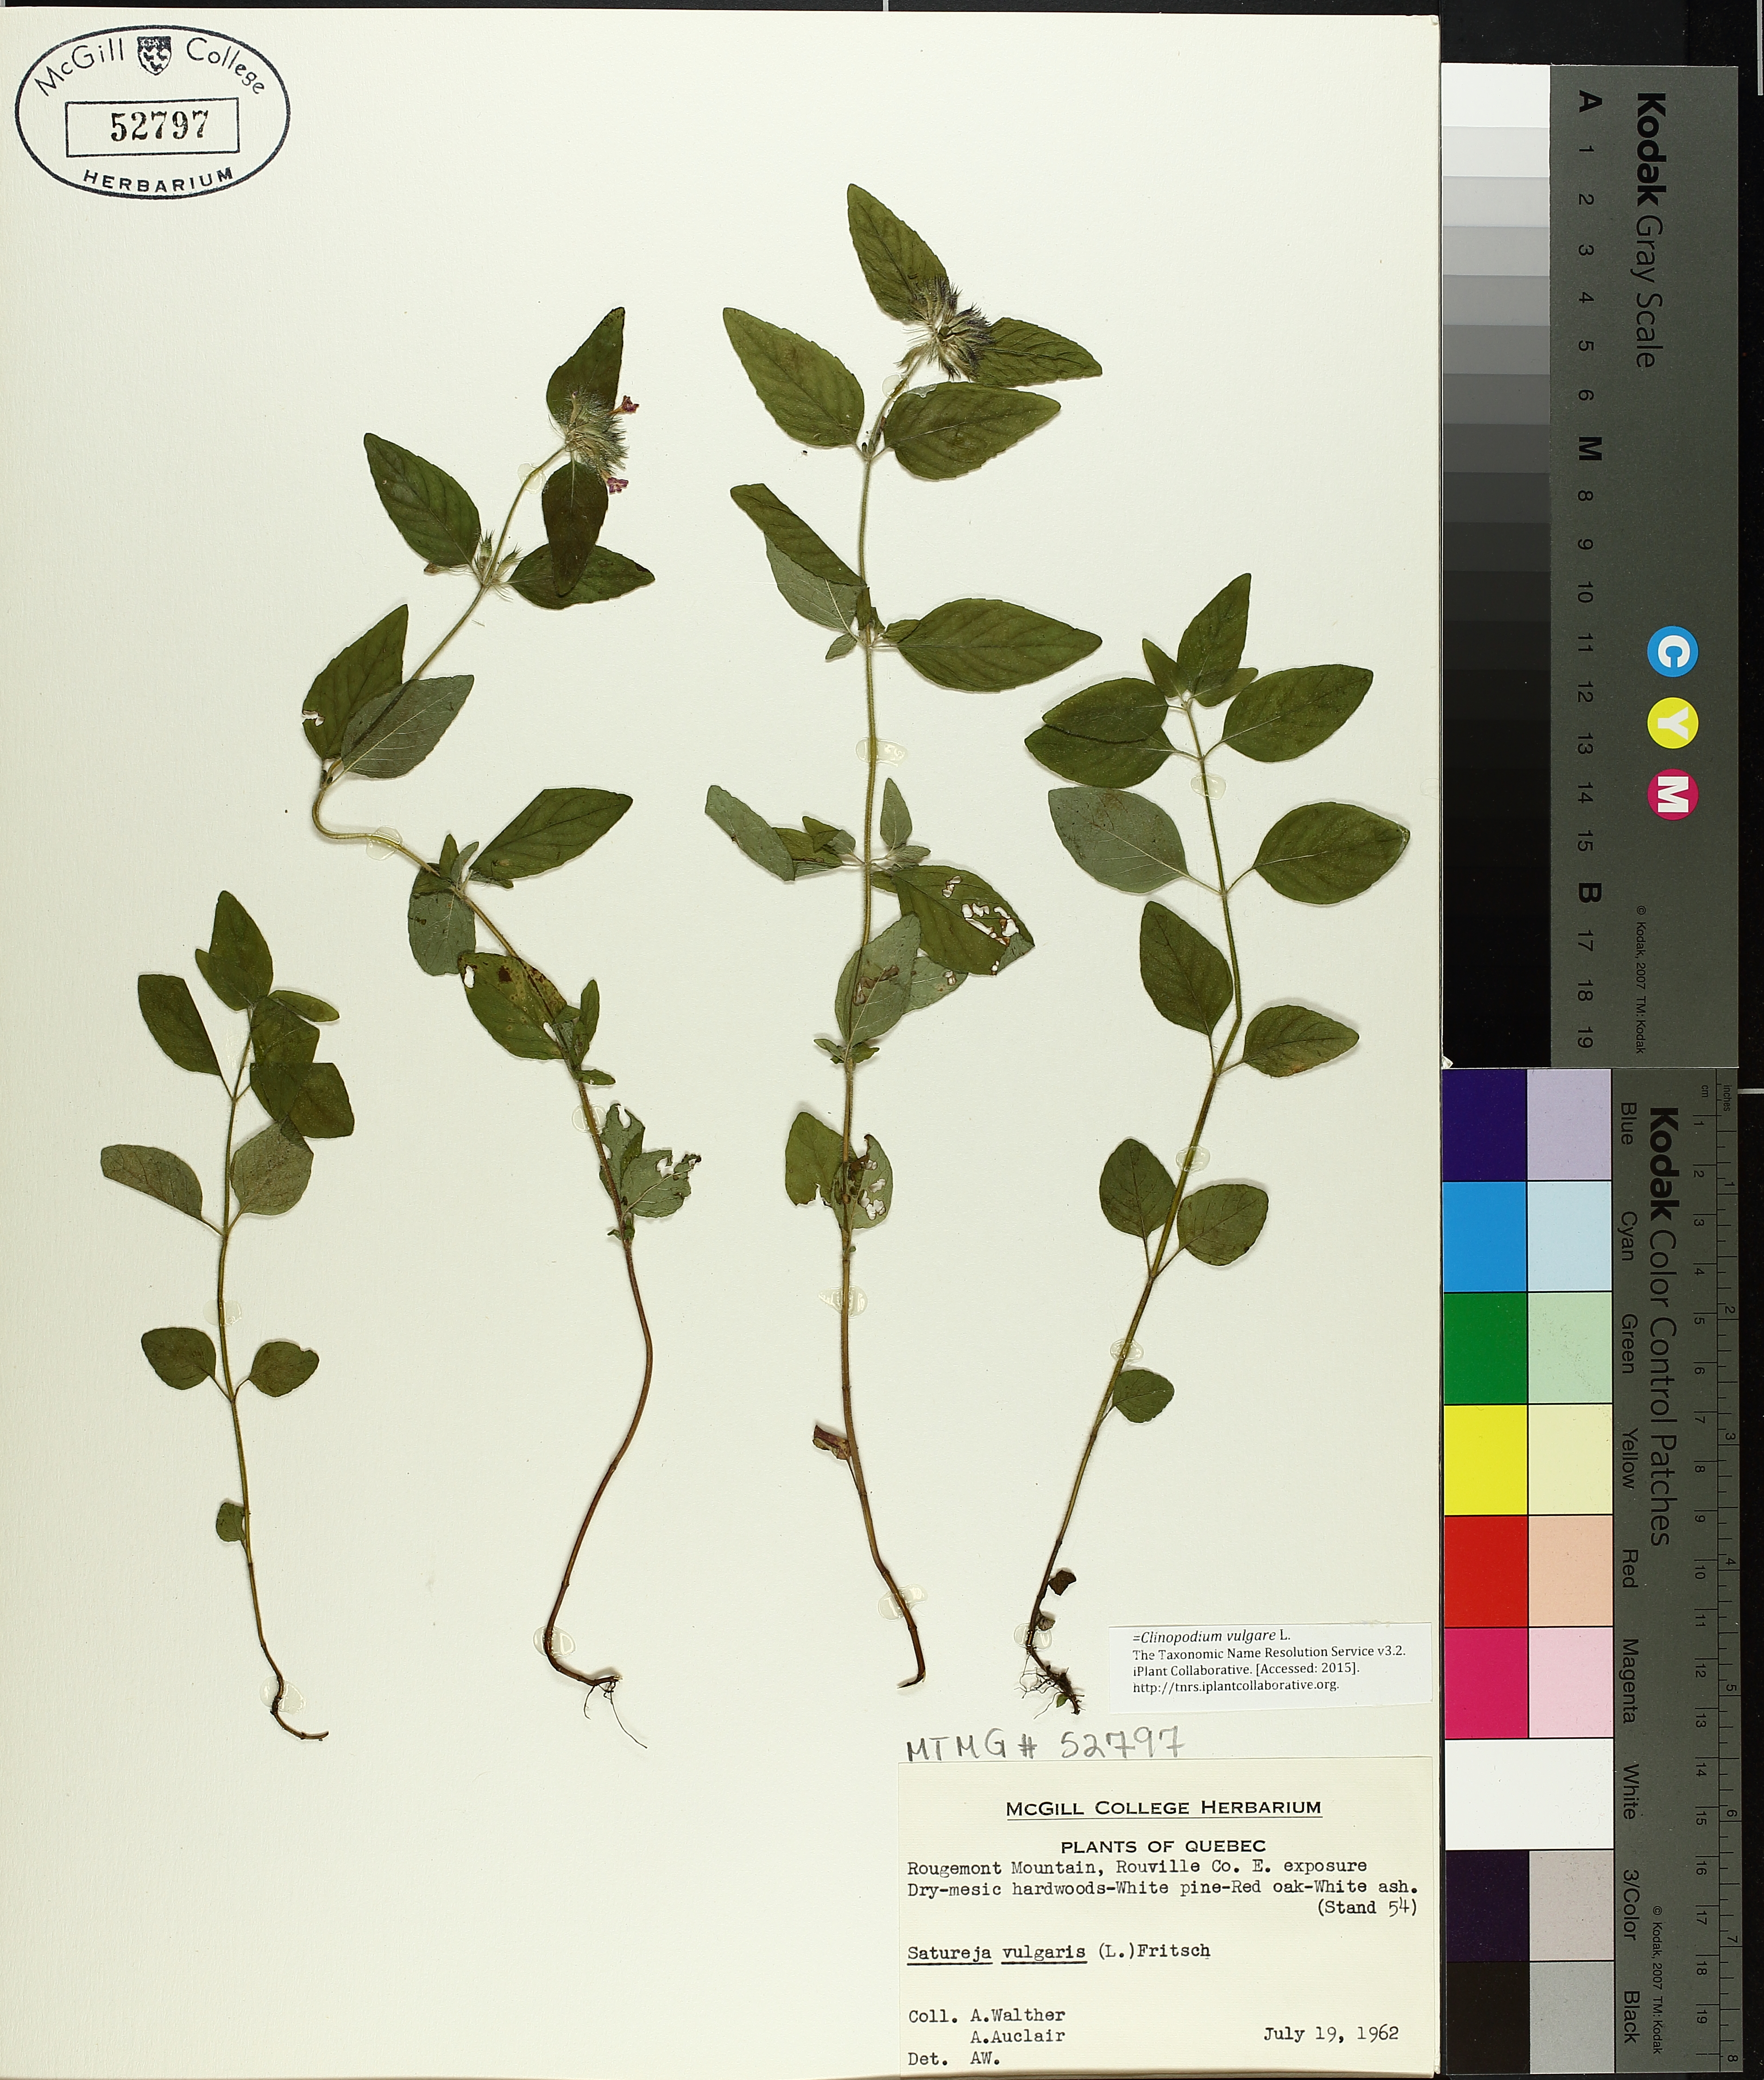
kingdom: Plantae
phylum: Tracheophyta
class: Magnoliopsida
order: Lamiales
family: Lamiaceae
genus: Clinopodium
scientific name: Clinopodium vulgare
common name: Wild basil
